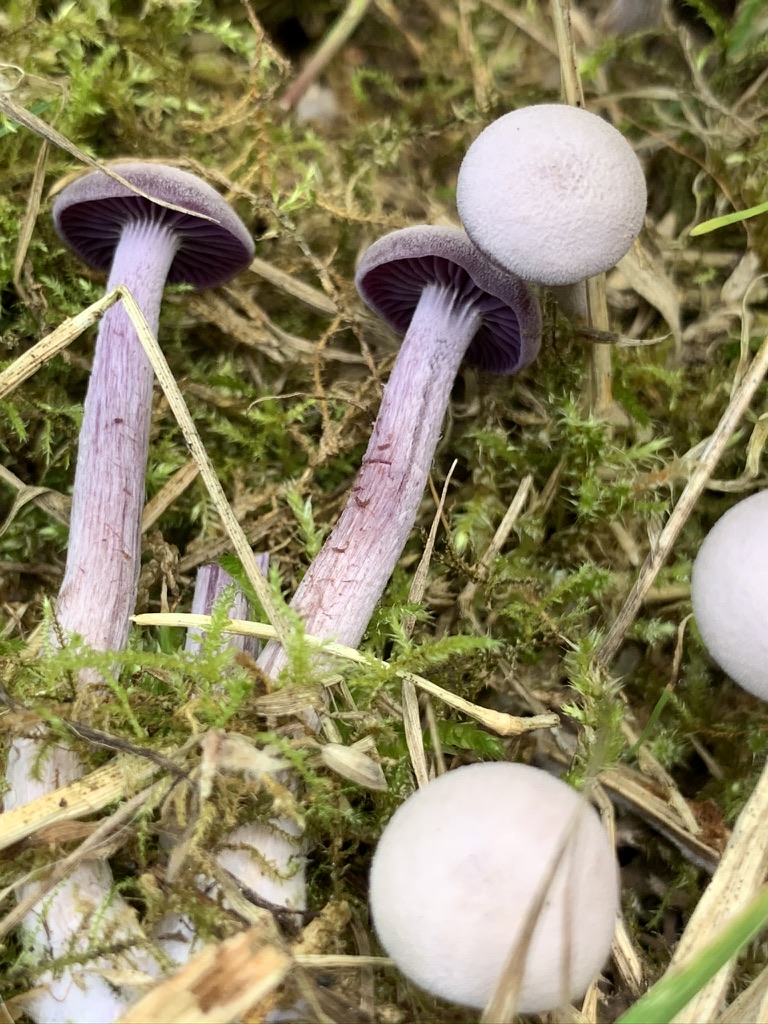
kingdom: Fungi
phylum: Basidiomycota
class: Agaricomycetes
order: Agaricales
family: Hydnangiaceae
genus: Laccaria
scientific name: Laccaria amethystina
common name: violet ametysthat
